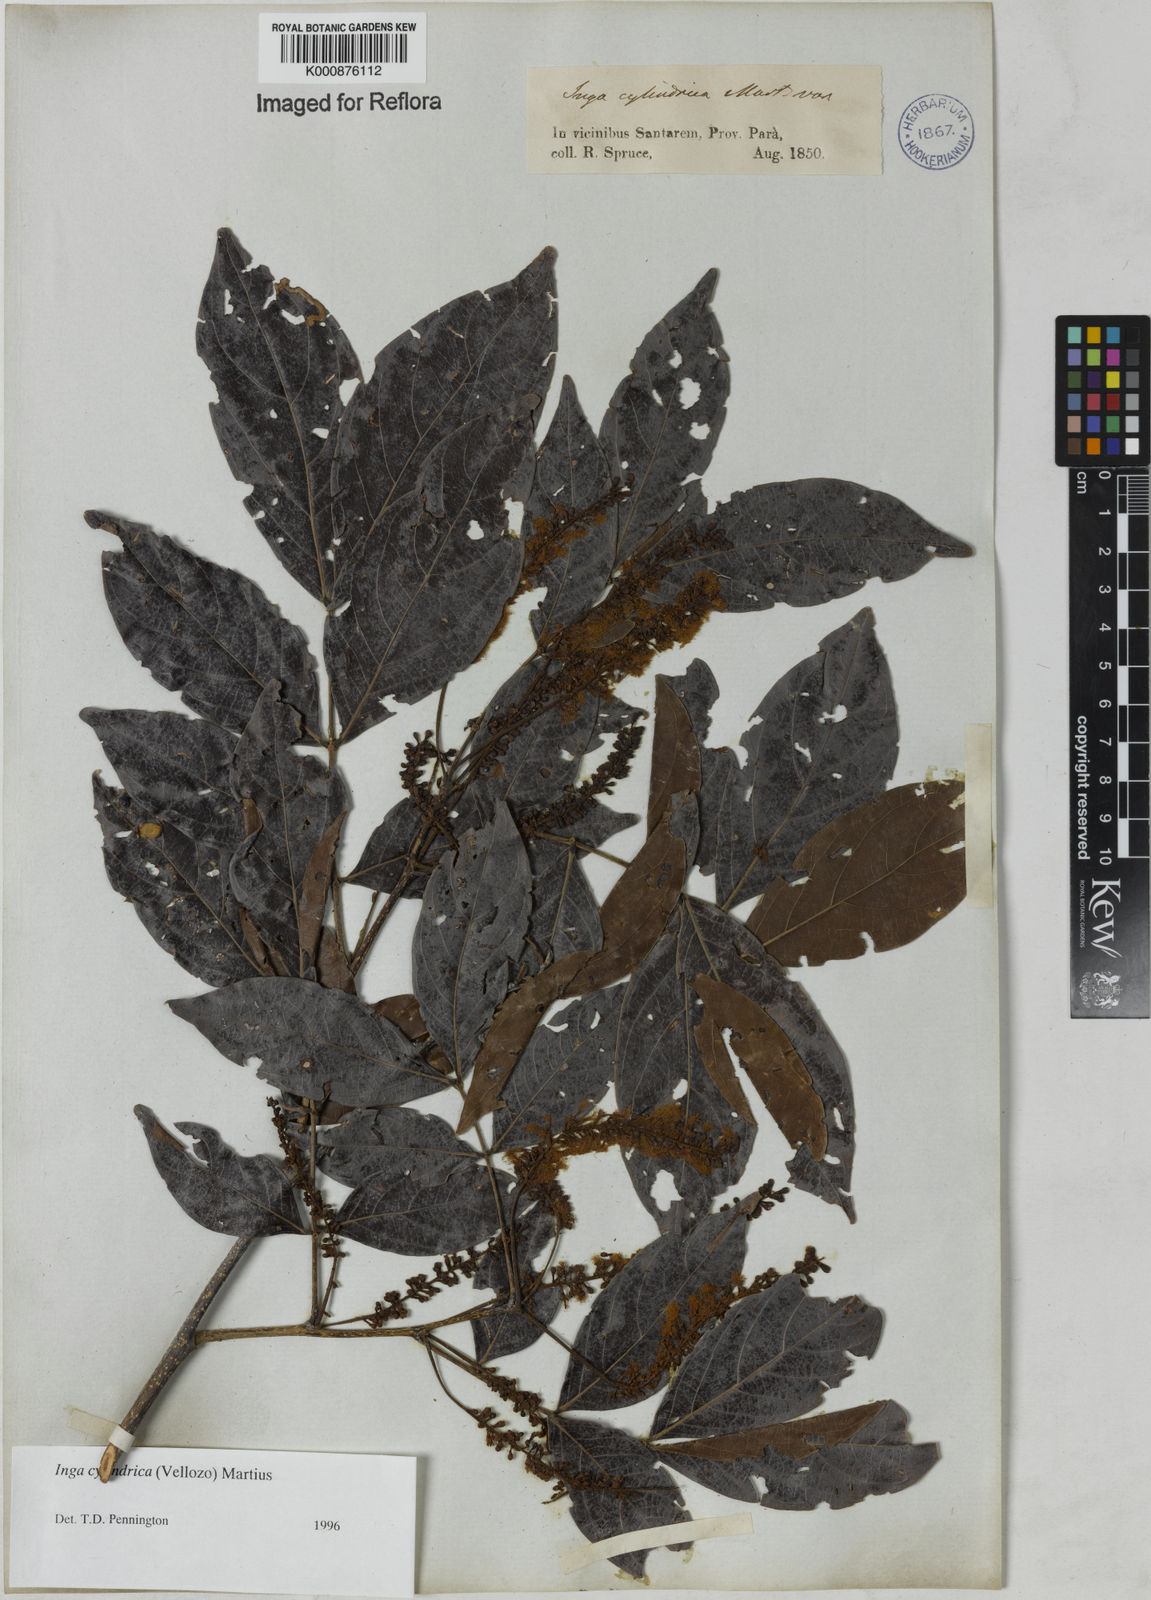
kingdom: Plantae
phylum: Tracheophyta
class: Magnoliopsida
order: Fabales
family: Fabaceae
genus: Inga
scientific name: Inga cylindrica
